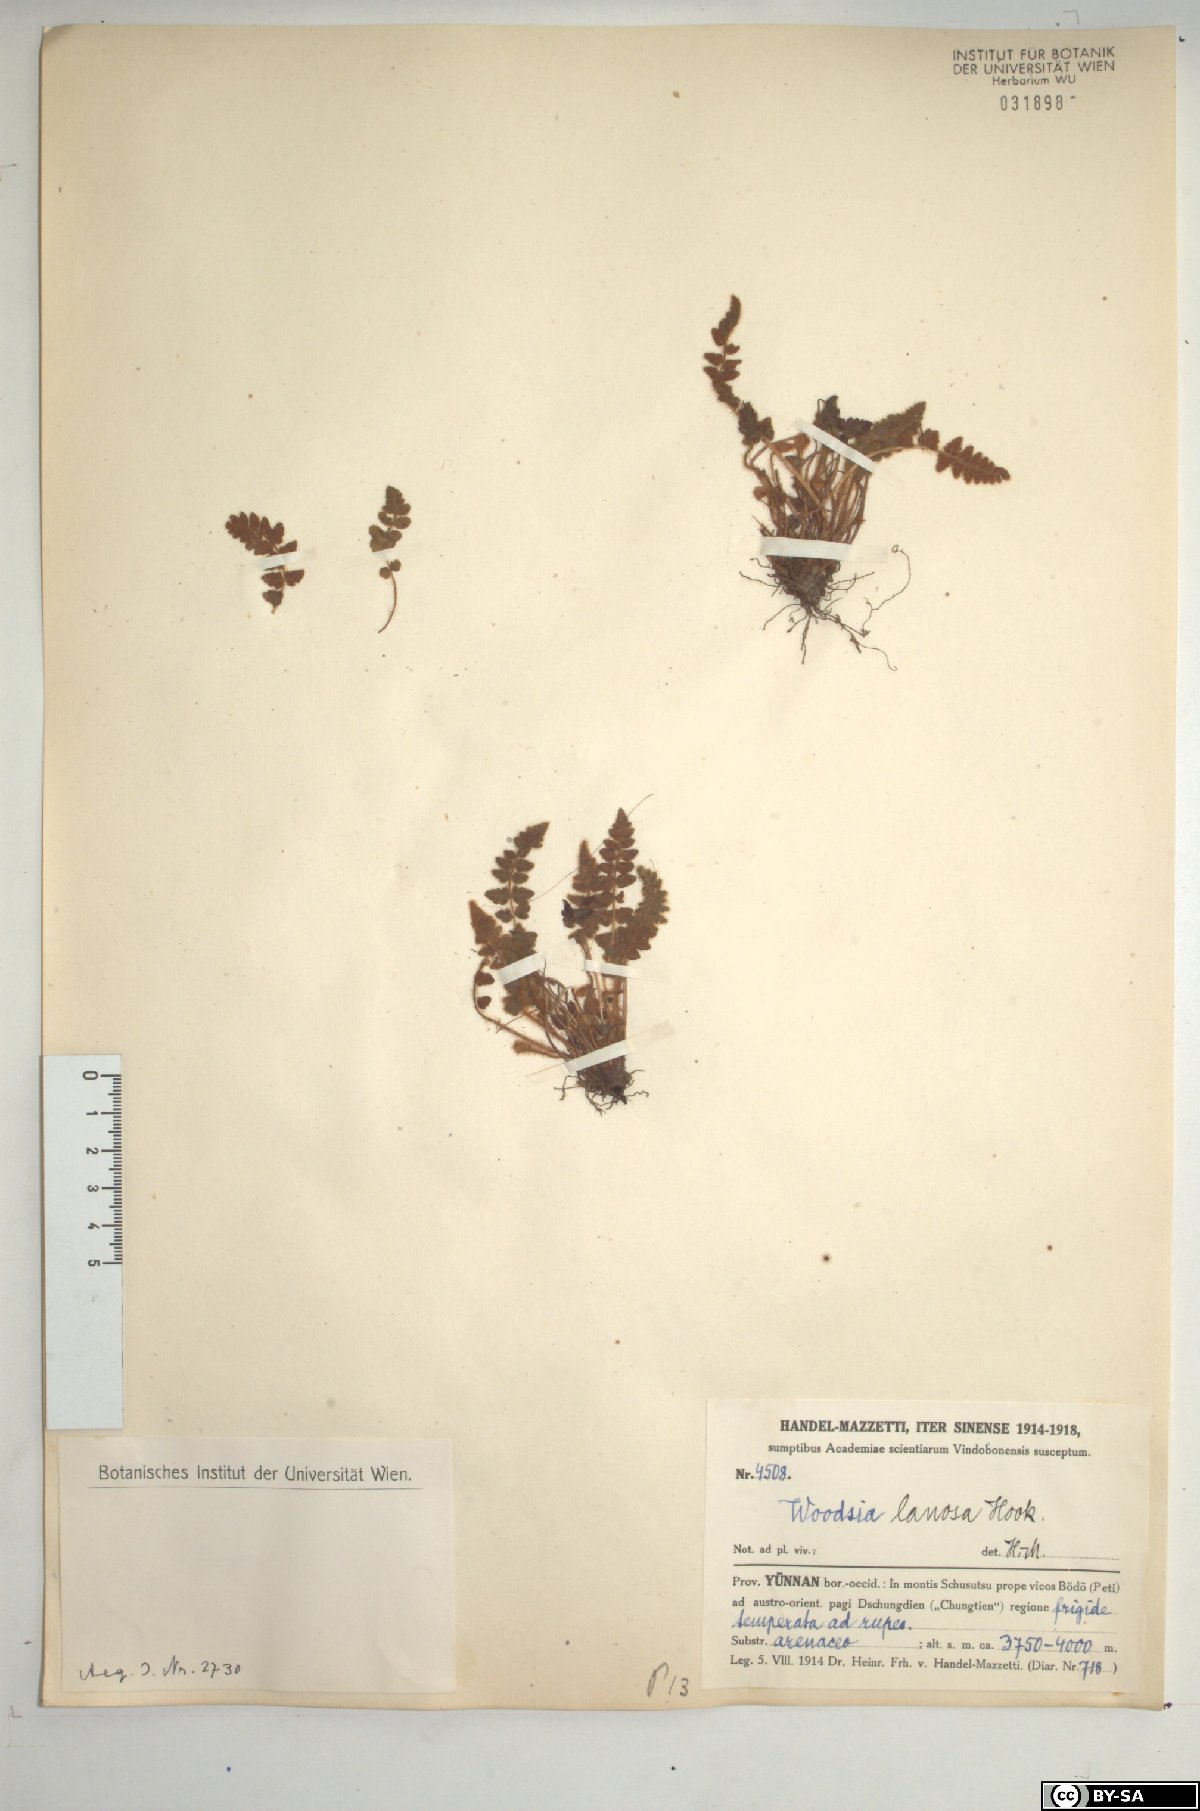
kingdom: Plantae
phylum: Tracheophyta
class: Polypodiopsida
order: Polypodiales
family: Woodsiaceae
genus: Woodsia
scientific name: Woodsia lanosa
